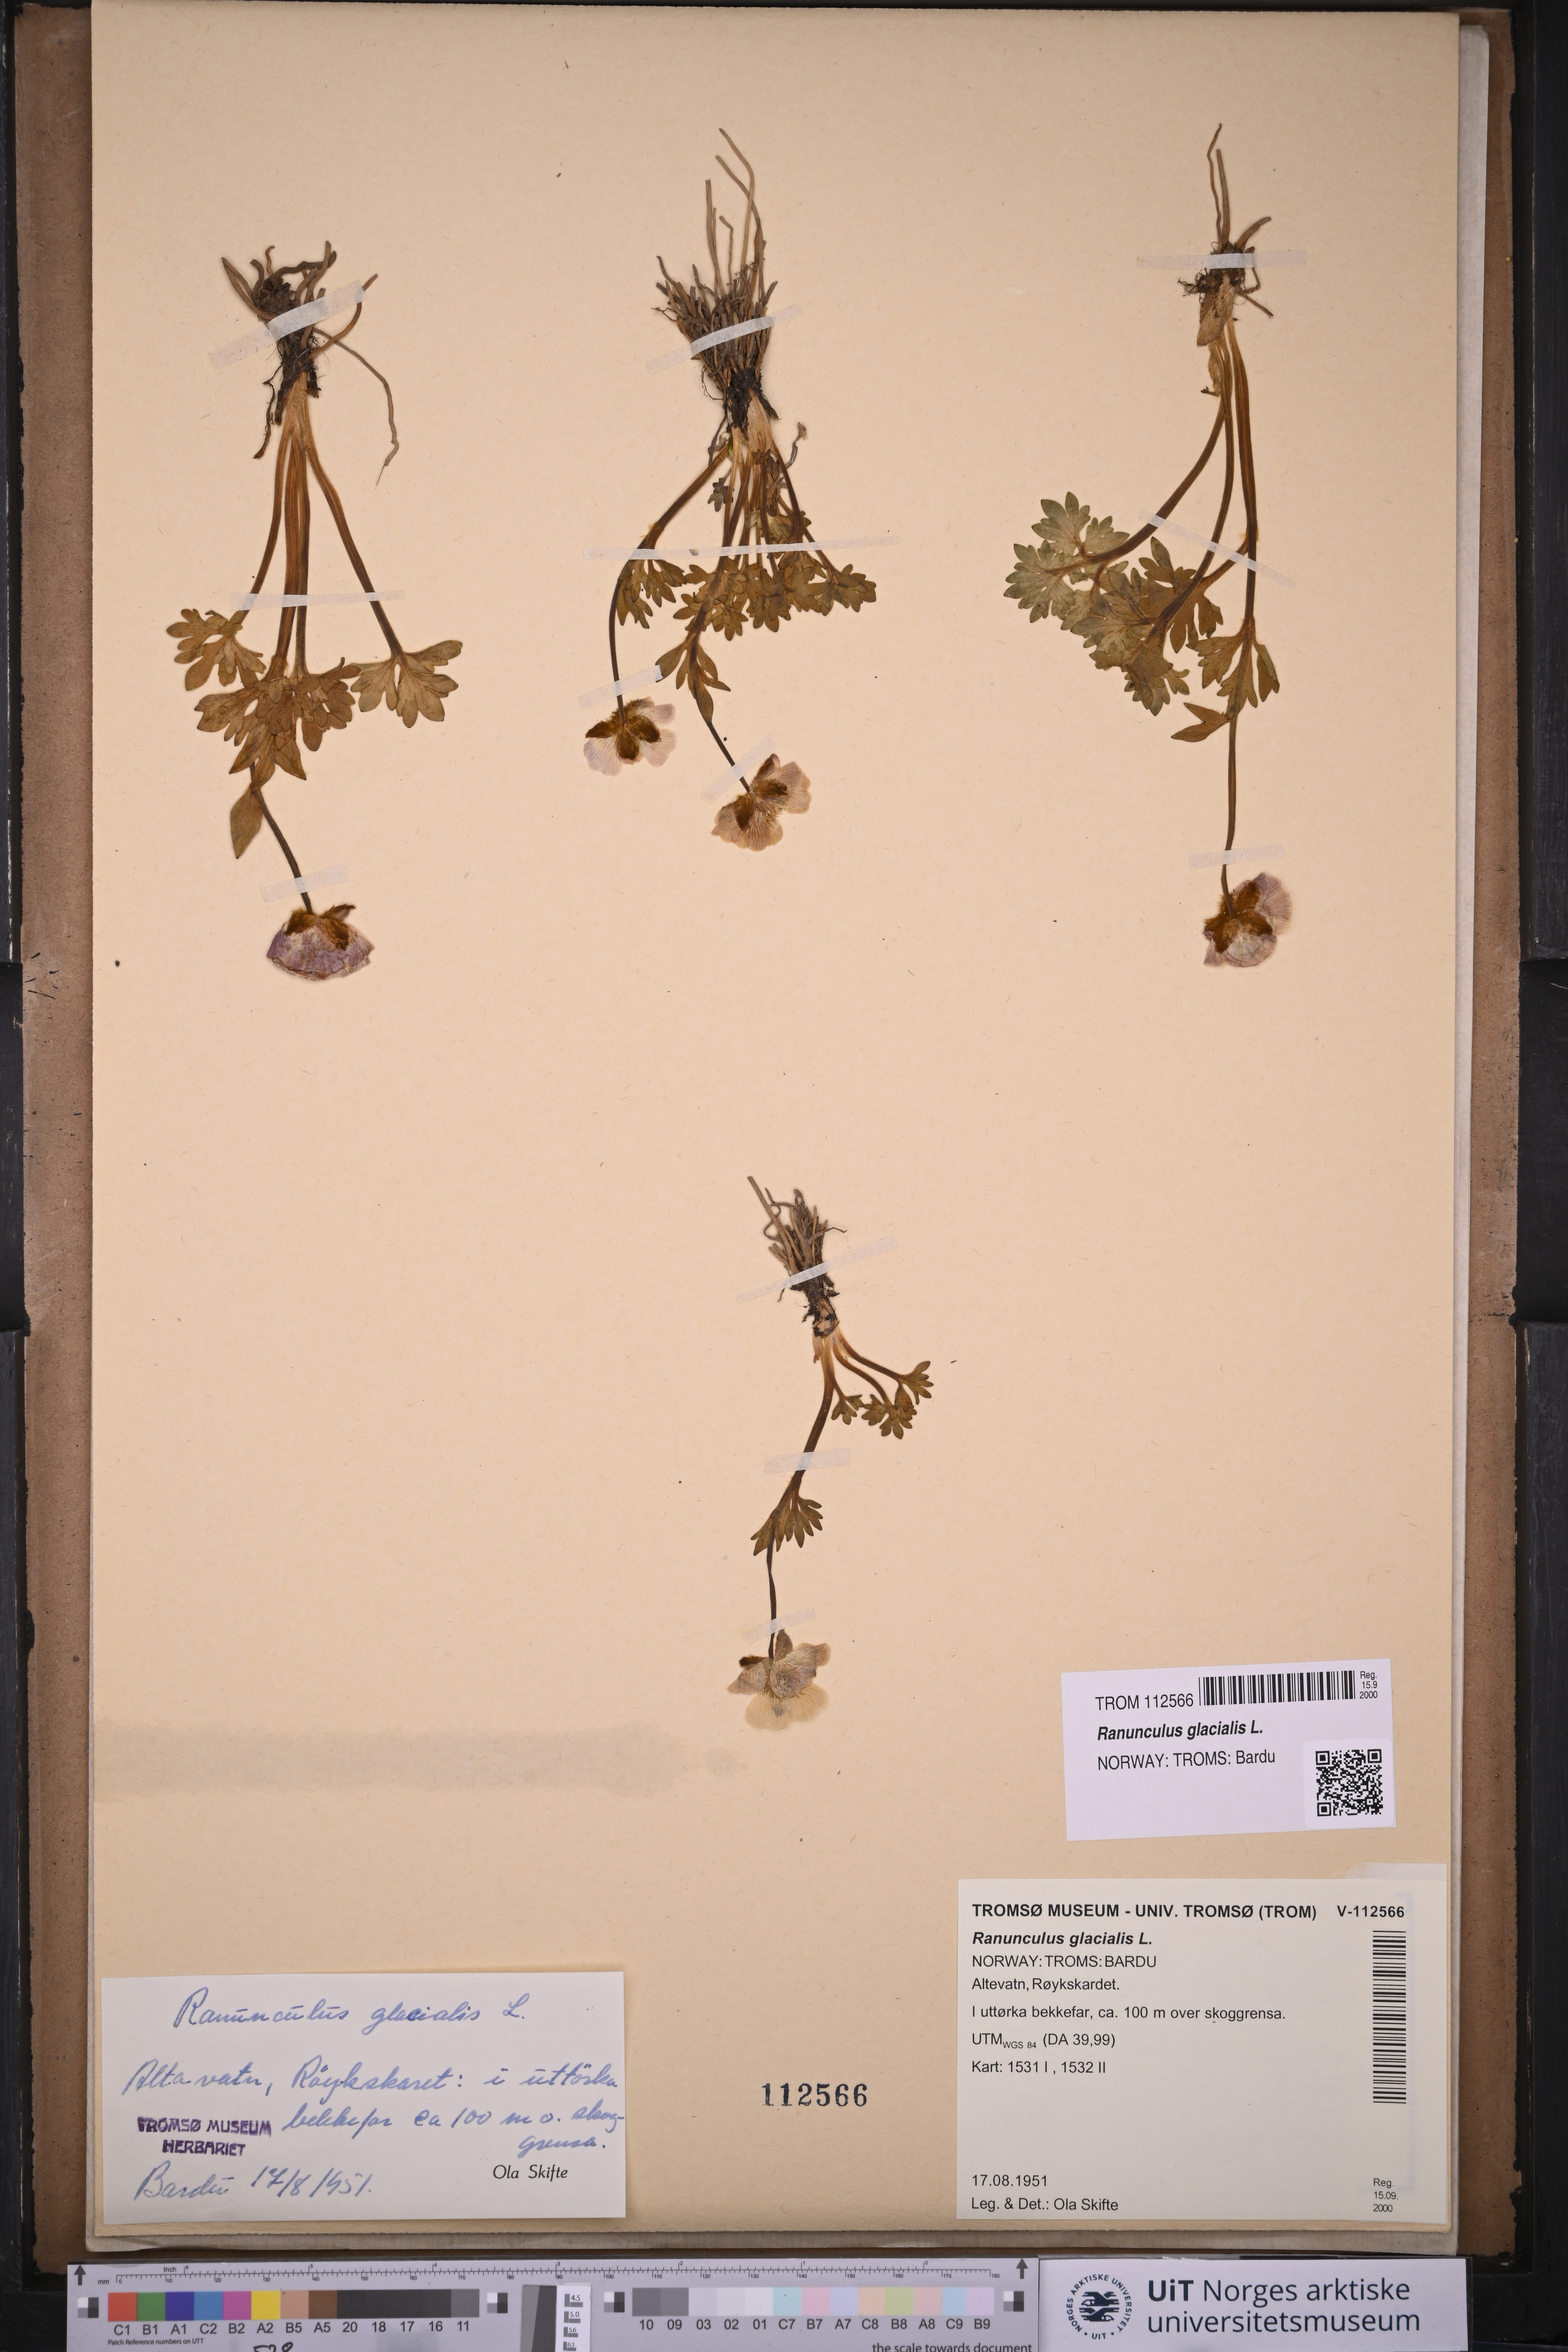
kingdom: Plantae
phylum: Tracheophyta
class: Magnoliopsida
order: Ranunculales
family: Ranunculaceae
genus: Ranunculus
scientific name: Ranunculus glacialis
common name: Glacier buttercup
